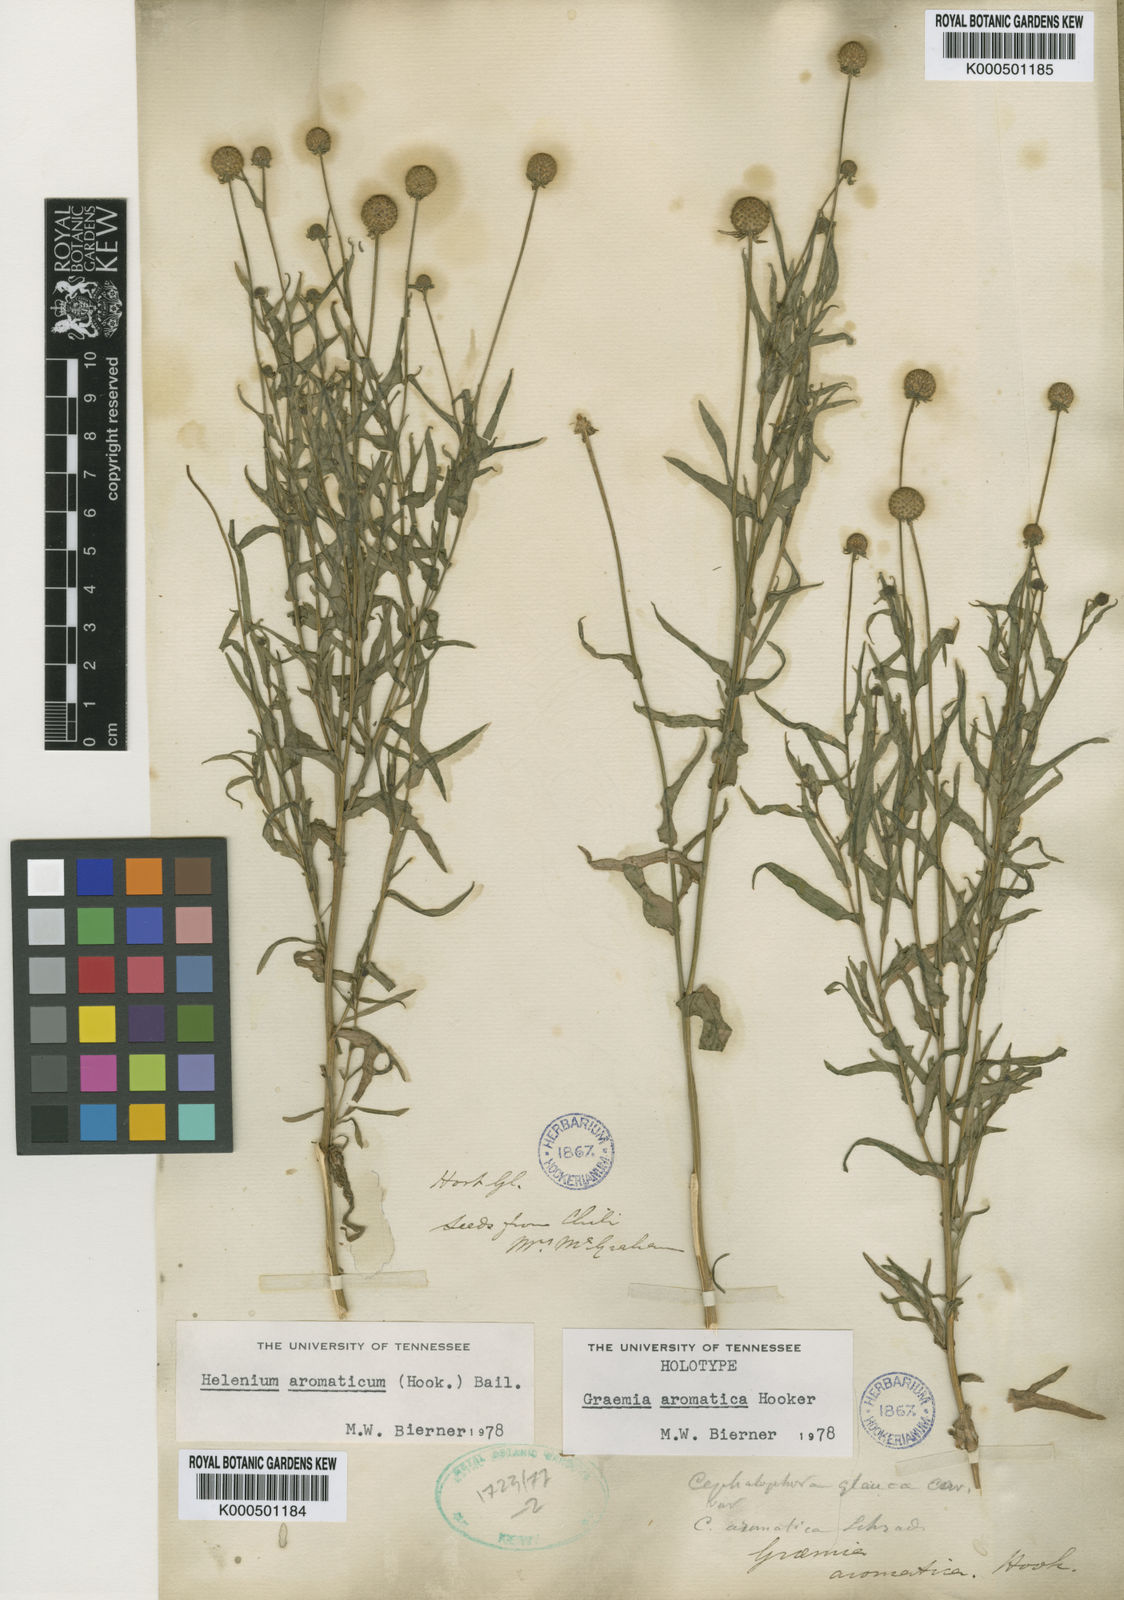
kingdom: Plantae
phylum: Tracheophyta
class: Magnoliopsida
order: Asterales
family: Asteraceae
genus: Helenium
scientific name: Helenium aromaticum
